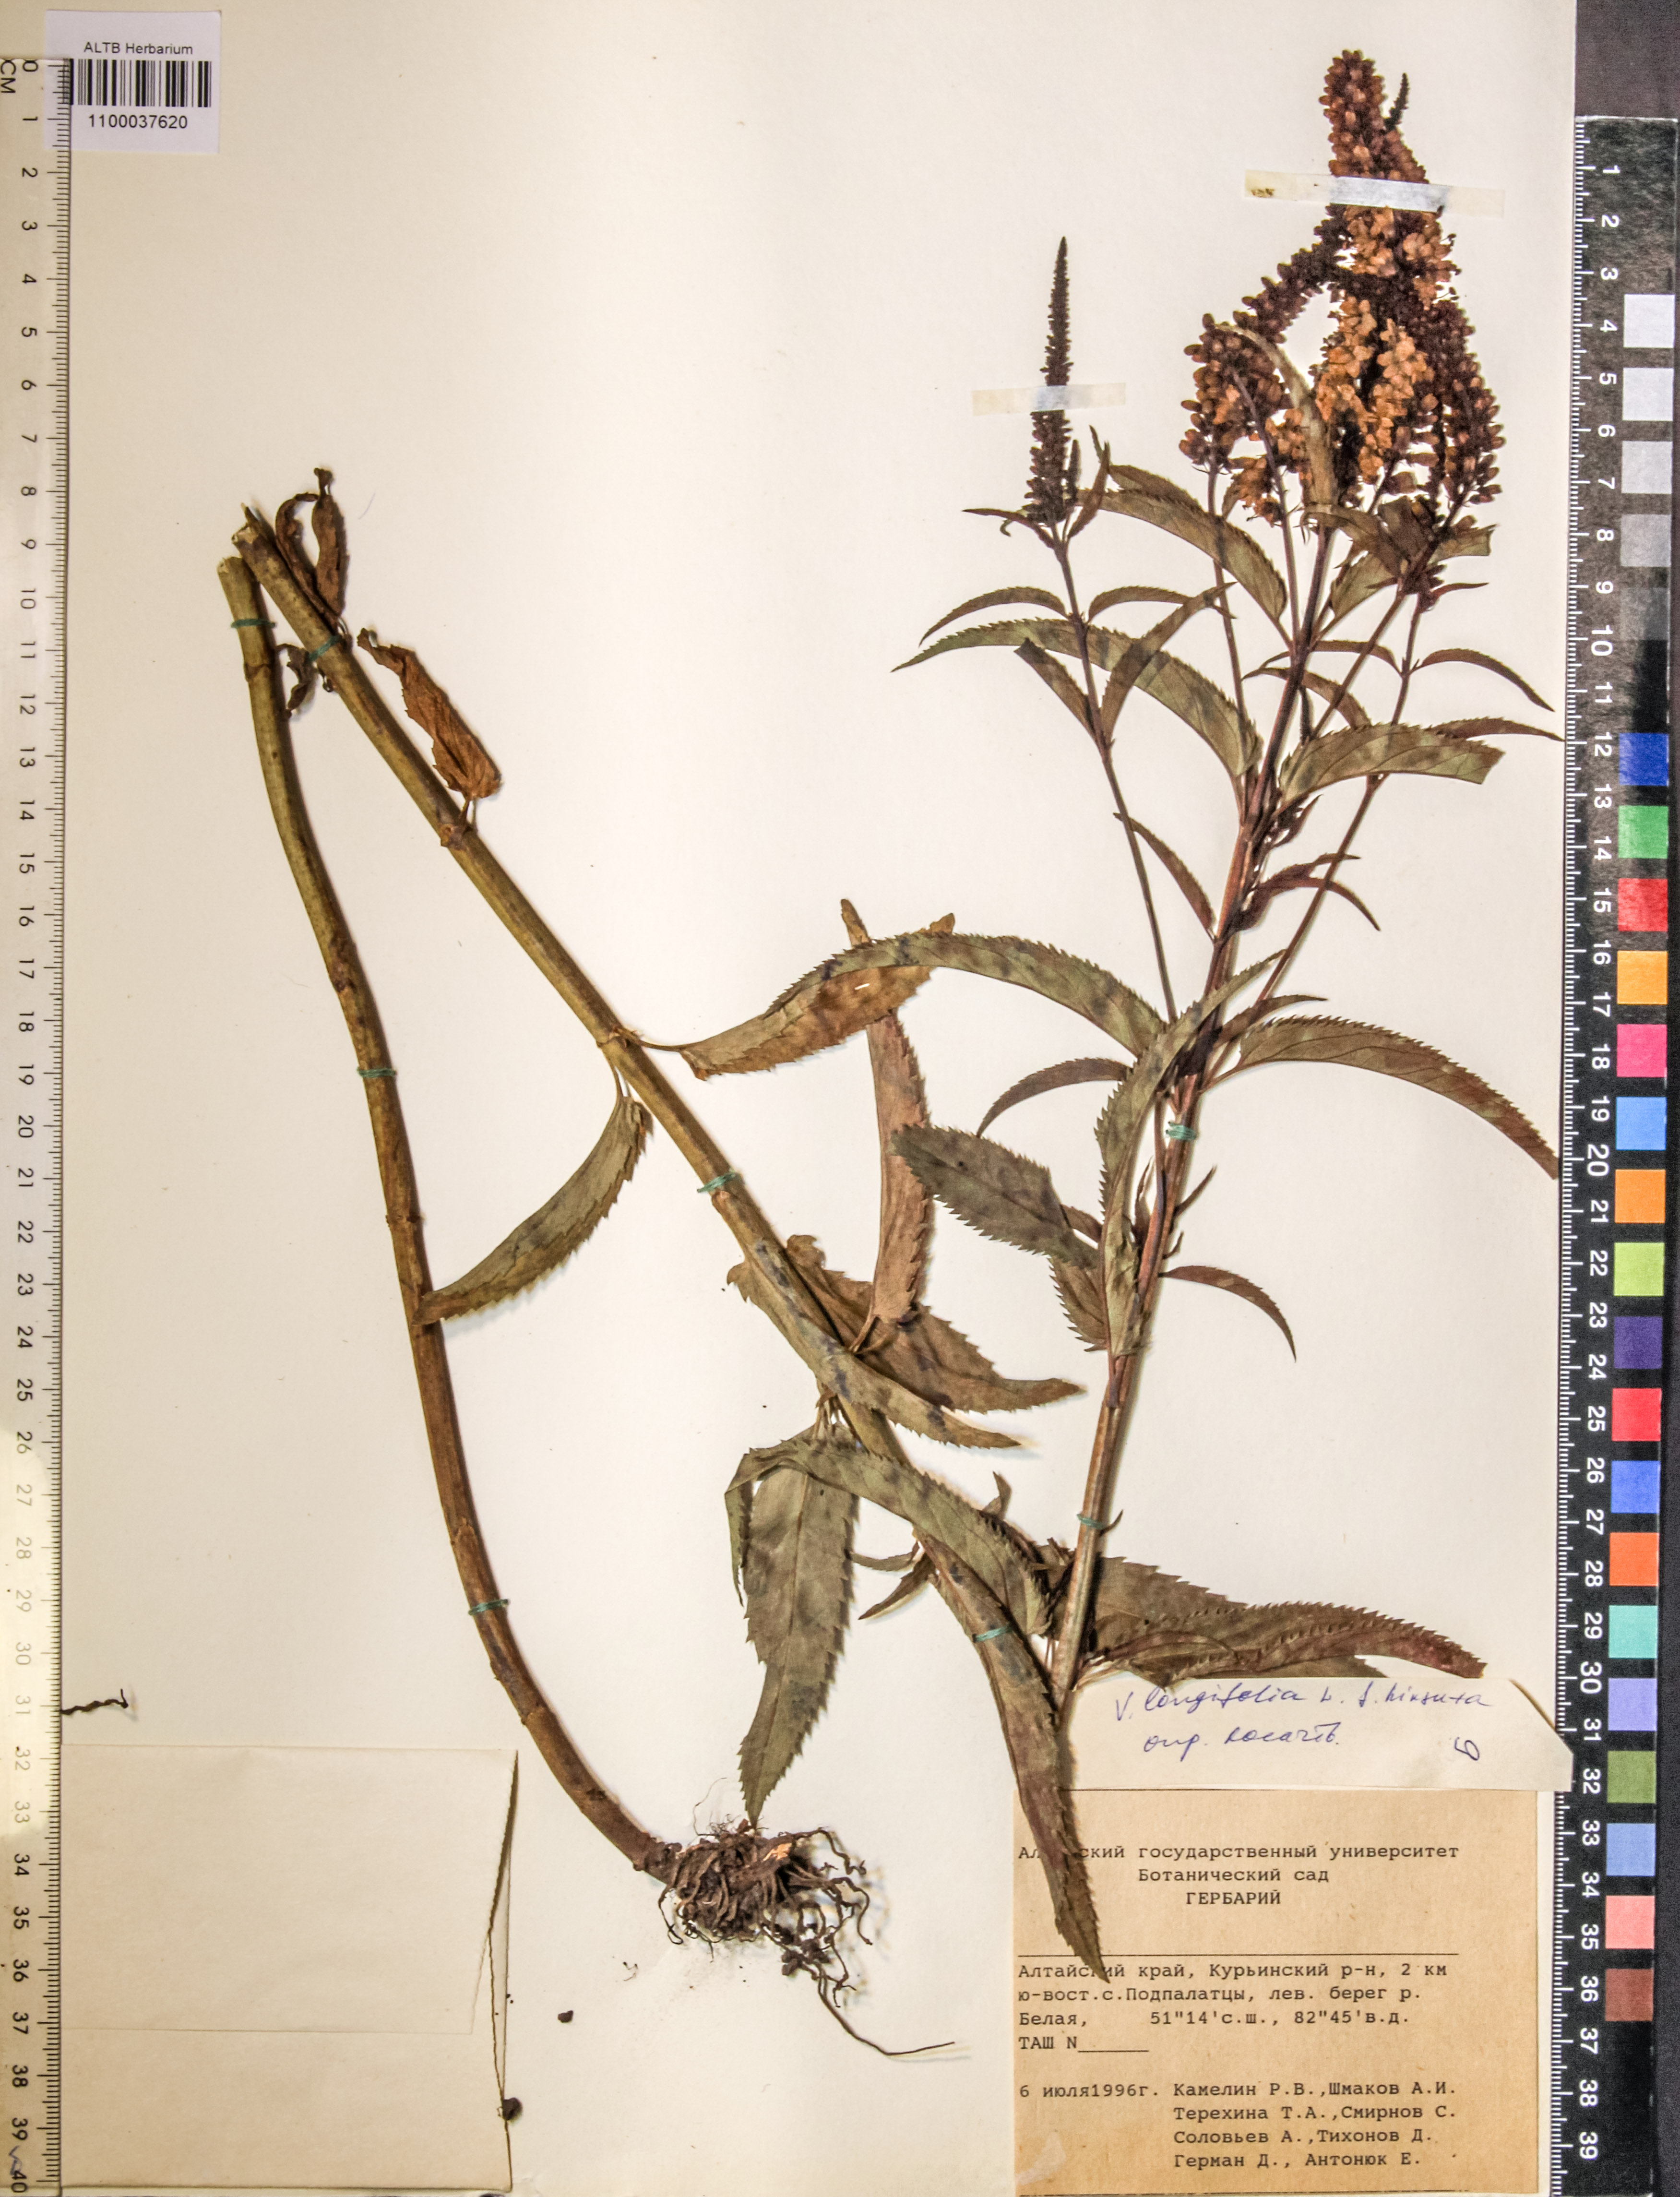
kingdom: Plantae
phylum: Tracheophyta
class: Magnoliopsida
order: Lamiales
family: Plantaginaceae
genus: Veronica
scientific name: Veronica longifolia
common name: Garden speedwell
